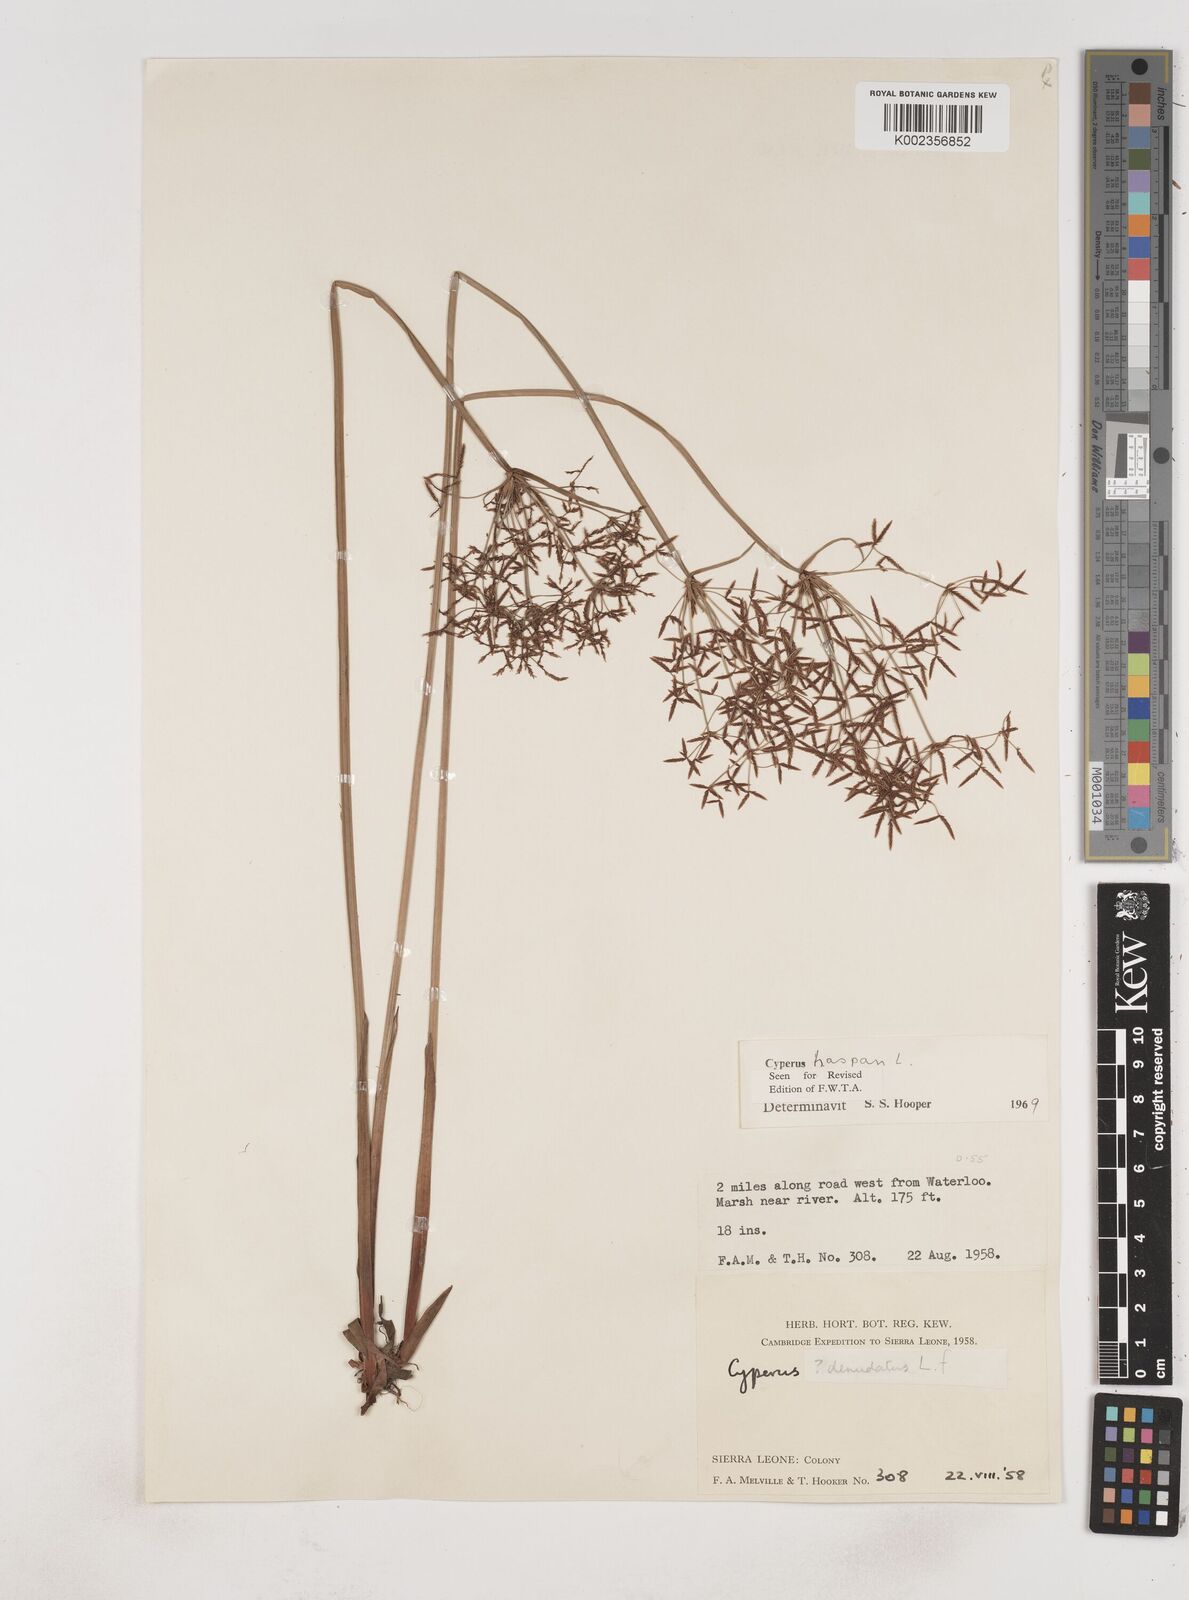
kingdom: Plantae
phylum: Tracheophyta
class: Liliopsida
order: Poales
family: Cyperaceae
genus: Cyperus
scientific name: Cyperus haspan
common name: Haspan flatsedge
